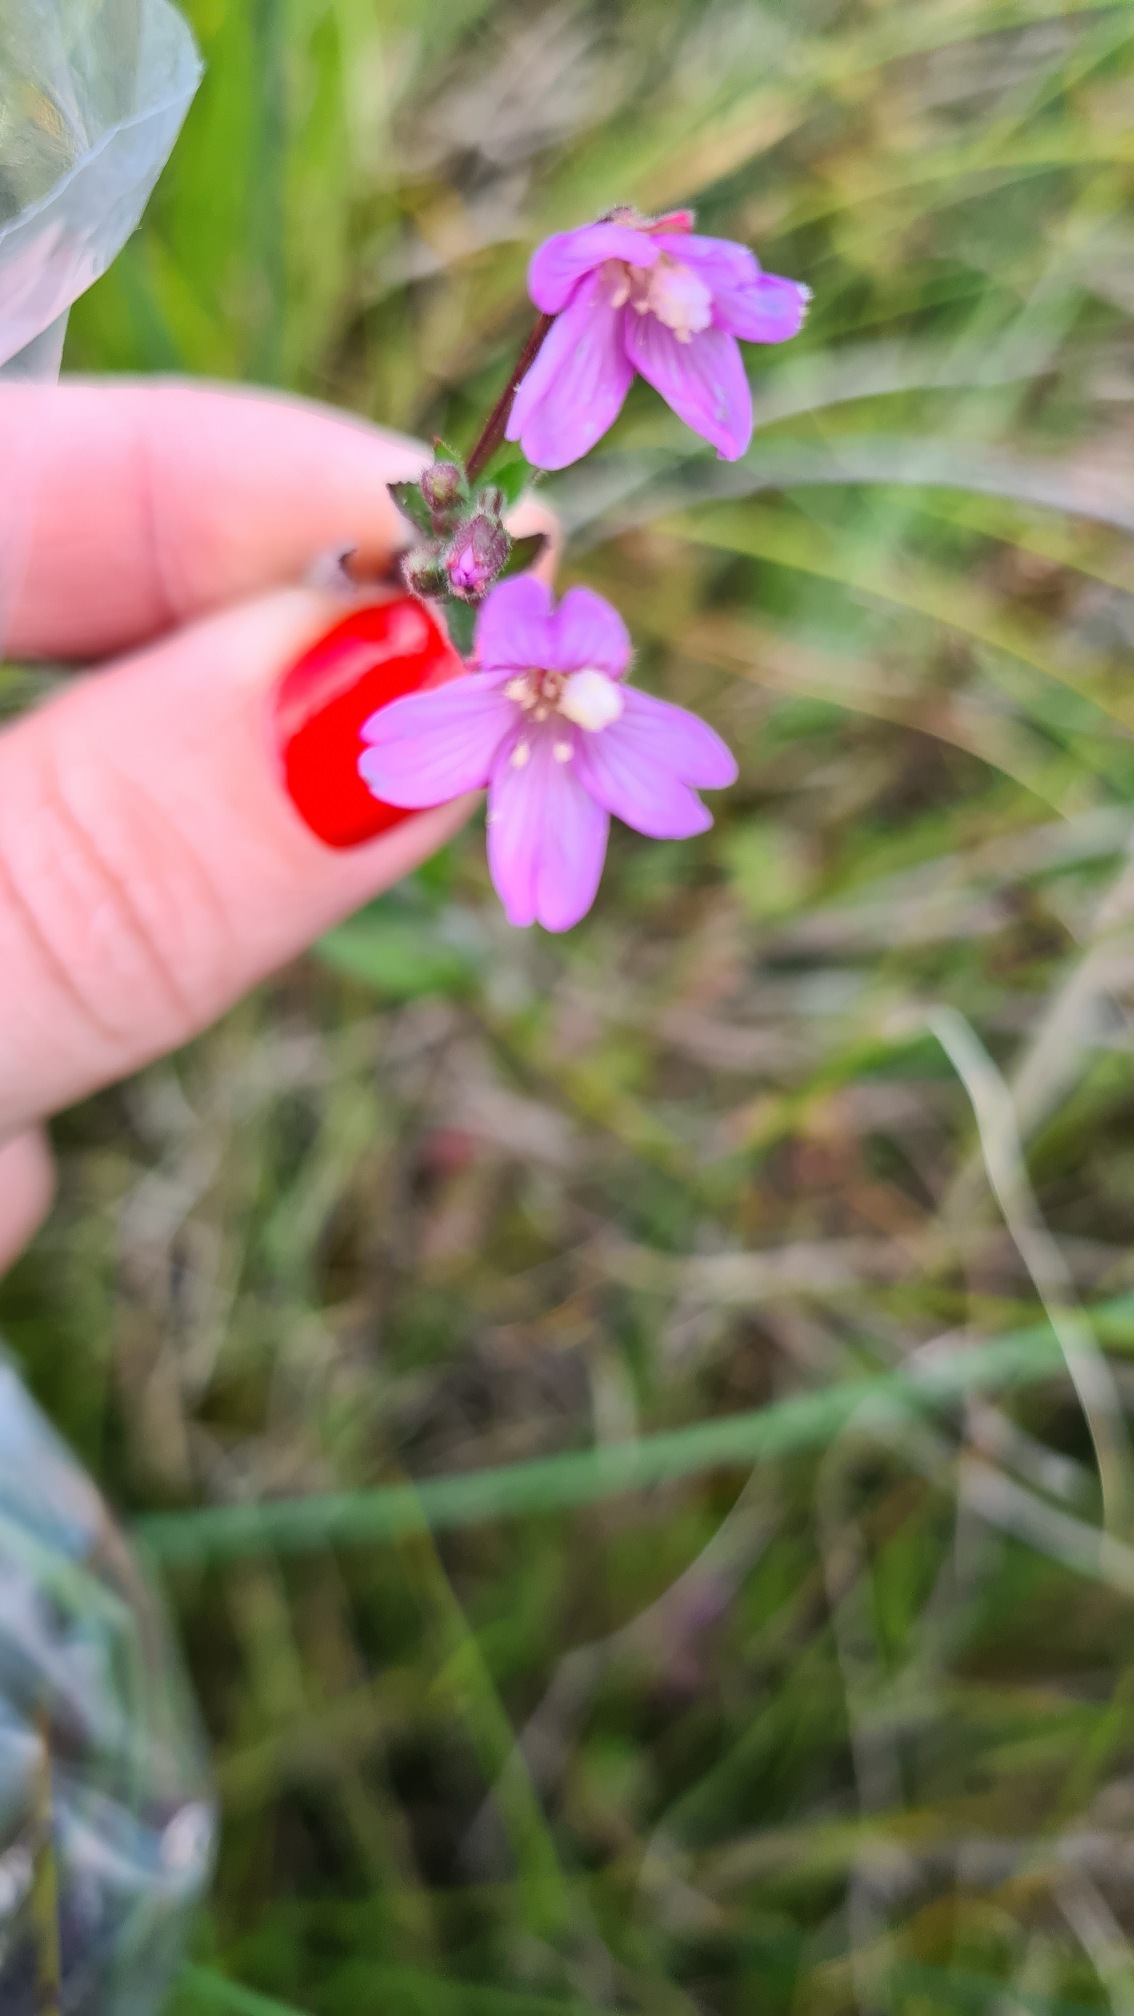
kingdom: Plantae
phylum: Tracheophyta
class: Magnoliopsida
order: Myrtales
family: Onagraceae
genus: Epilobium
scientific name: Epilobium parviflorum
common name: Dunet dueurt
